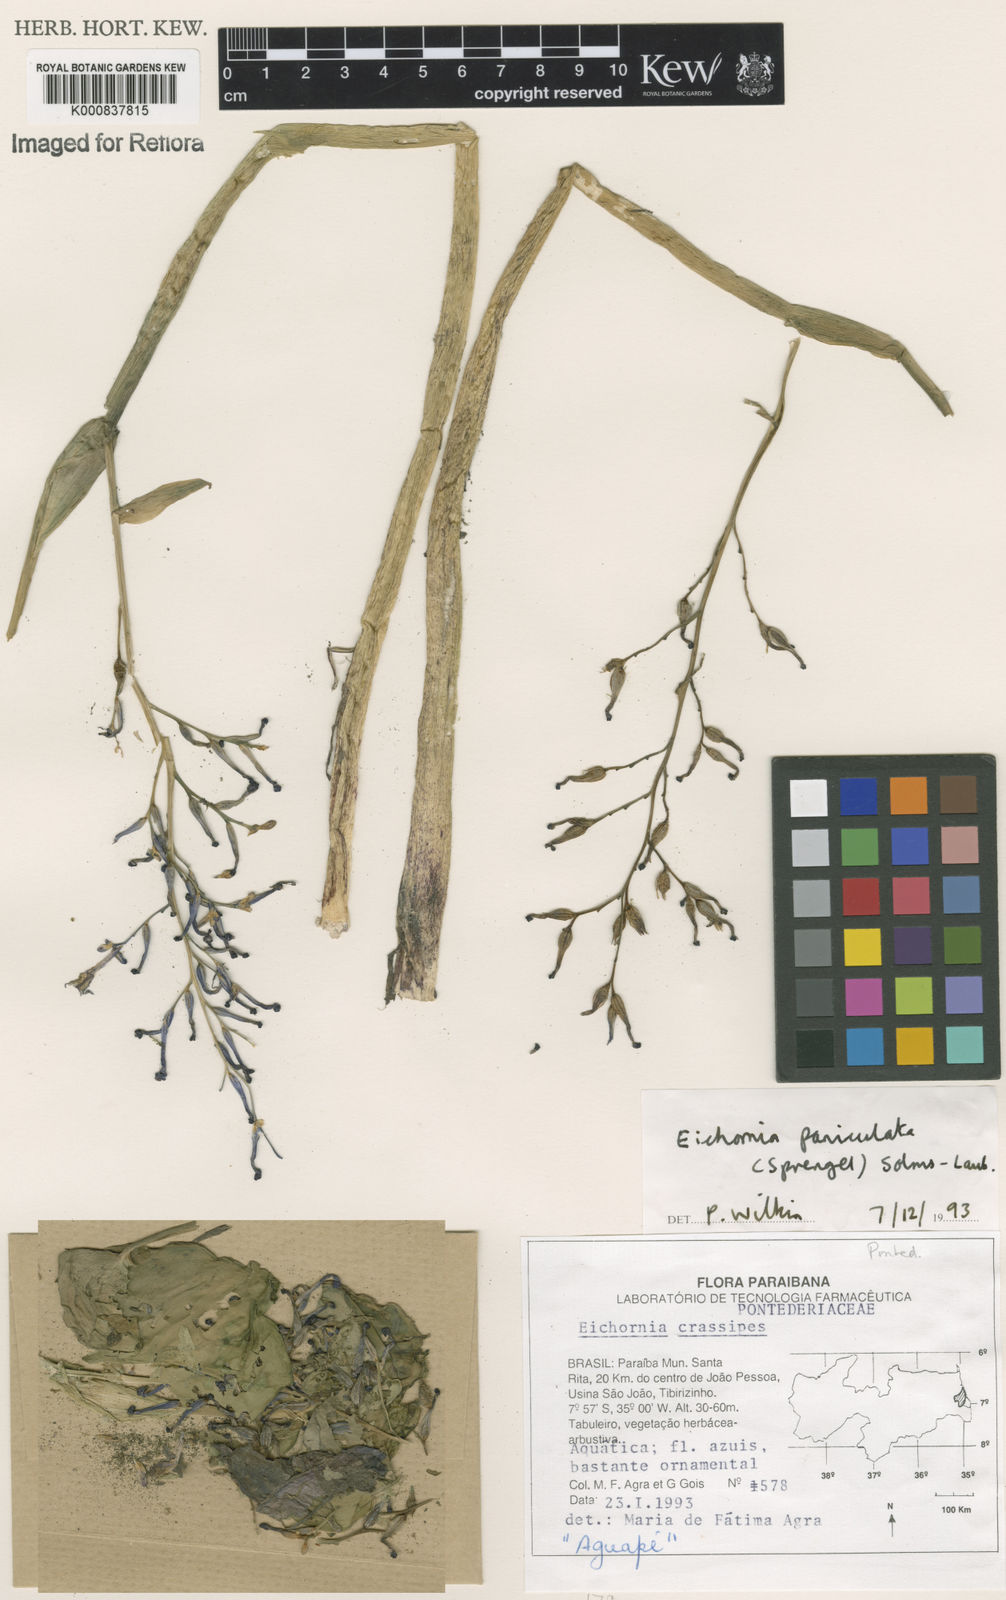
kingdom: Plantae
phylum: Tracheophyta
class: Liliopsida
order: Commelinales
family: Pontederiaceae
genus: Pontederia
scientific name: Pontederia paniculata
